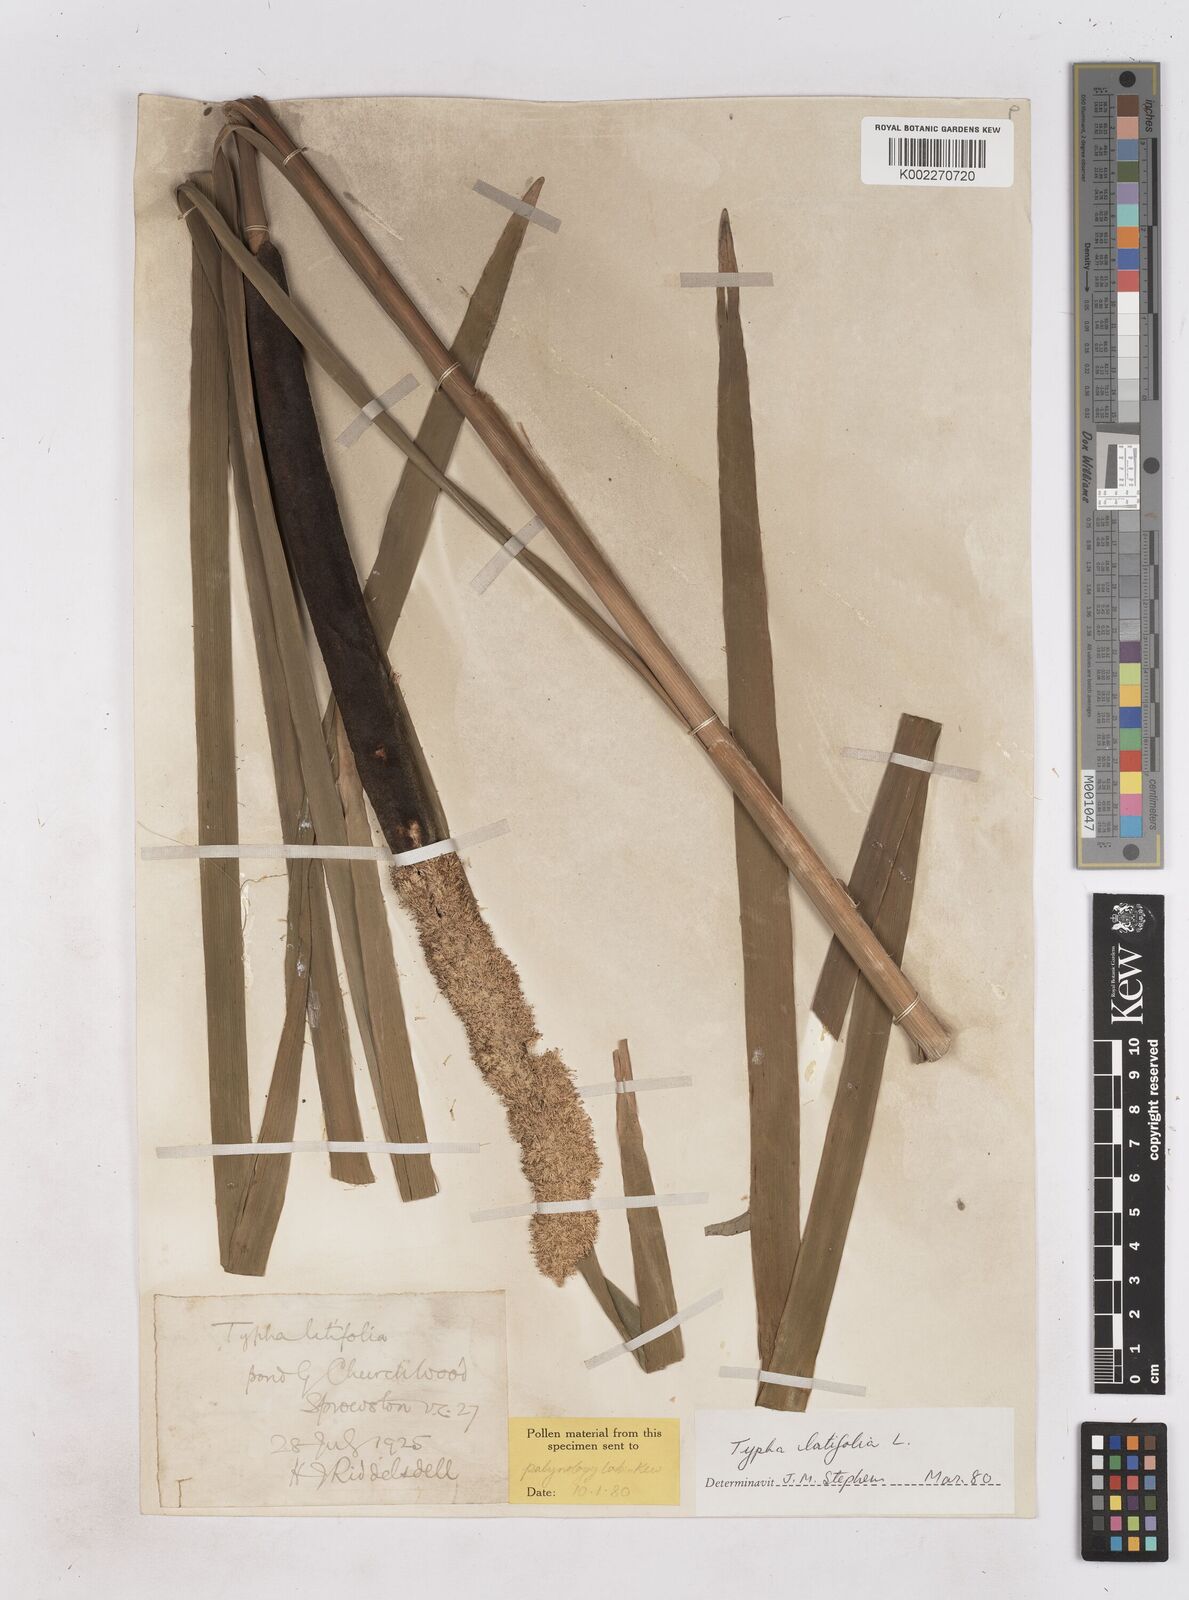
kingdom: Plantae
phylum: Tracheophyta
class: Liliopsida
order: Poales
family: Typhaceae
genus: Typha
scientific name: Typha latifolia
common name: Broadleaf cattail
